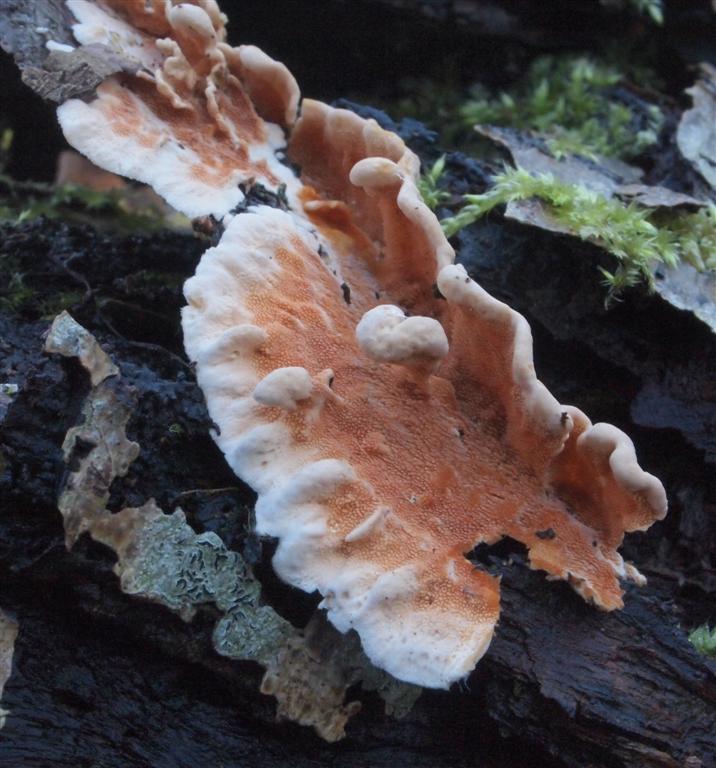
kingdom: Fungi
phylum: Basidiomycota
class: Agaricomycetes
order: Polyporales
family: Steccherinaceae
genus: Steccherinum
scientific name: Steccherinum ochraceum
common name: almindelig skønpig
